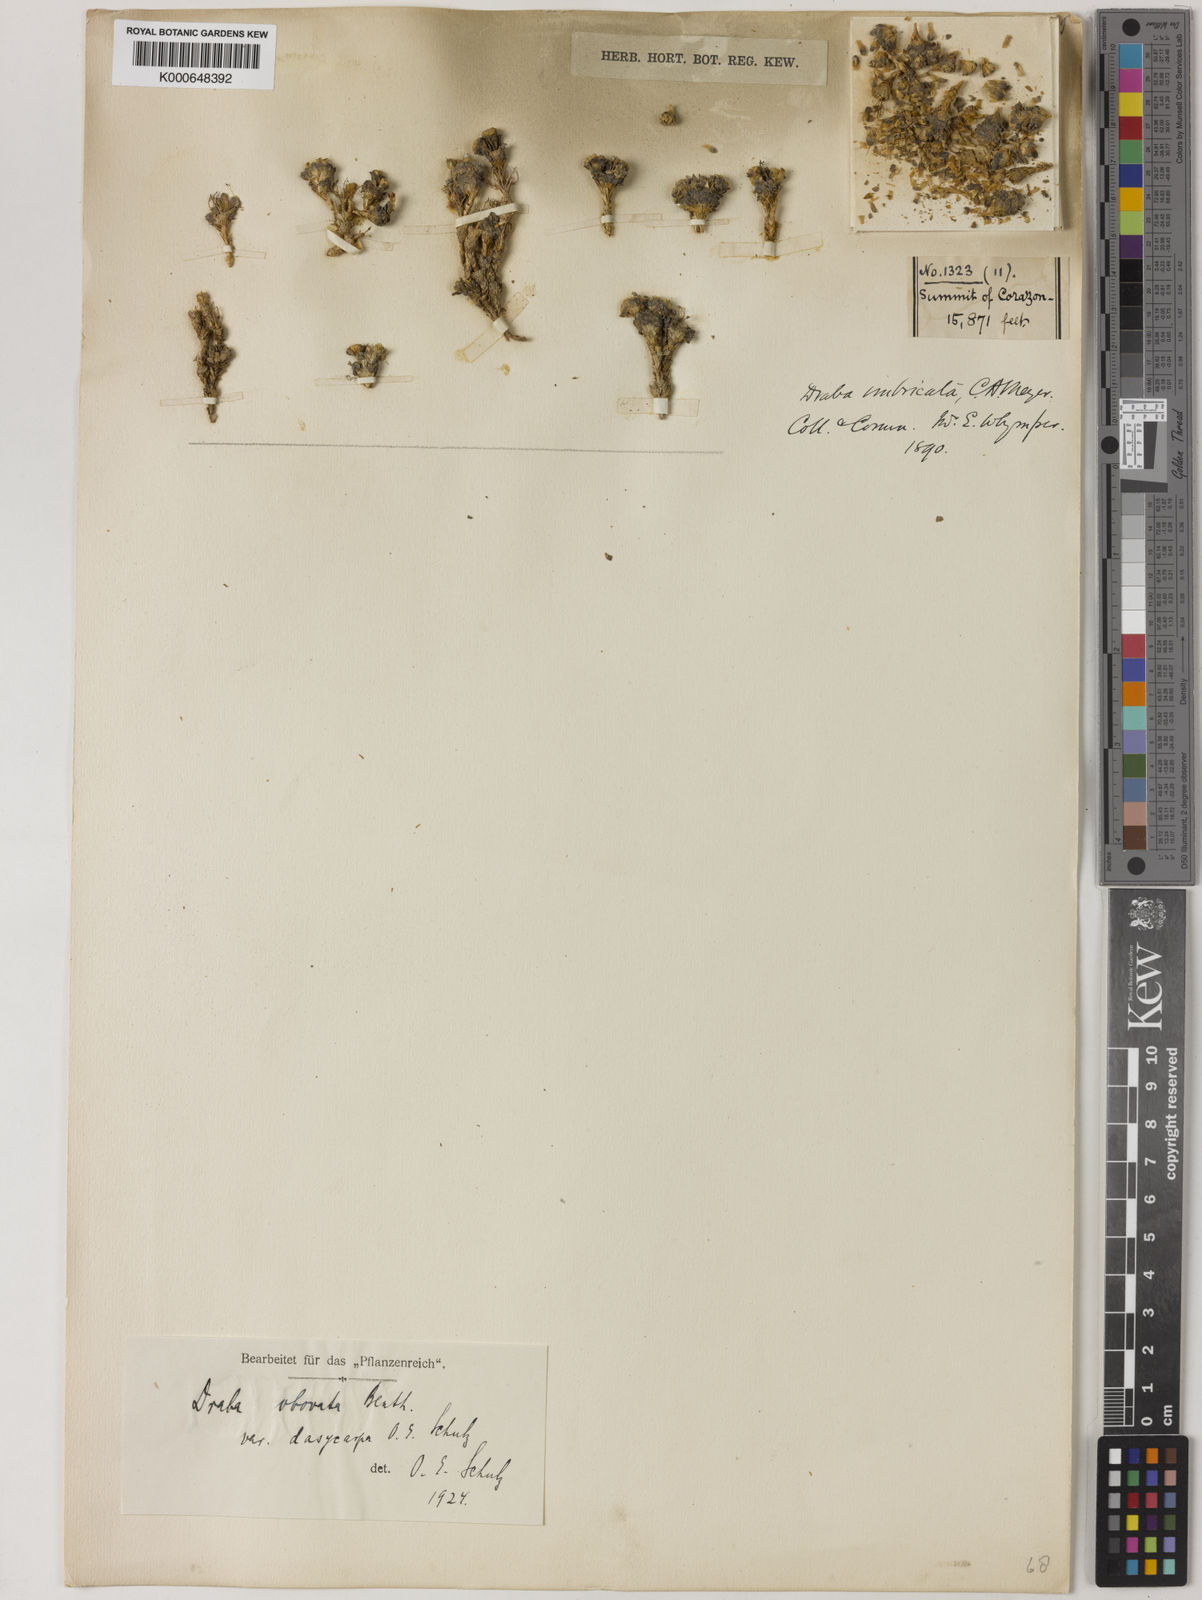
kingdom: Plantae
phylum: Tracheophyta
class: Magnoliopsida
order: Brassicales
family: Brassicaceae
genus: Draba
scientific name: Draba obovata
